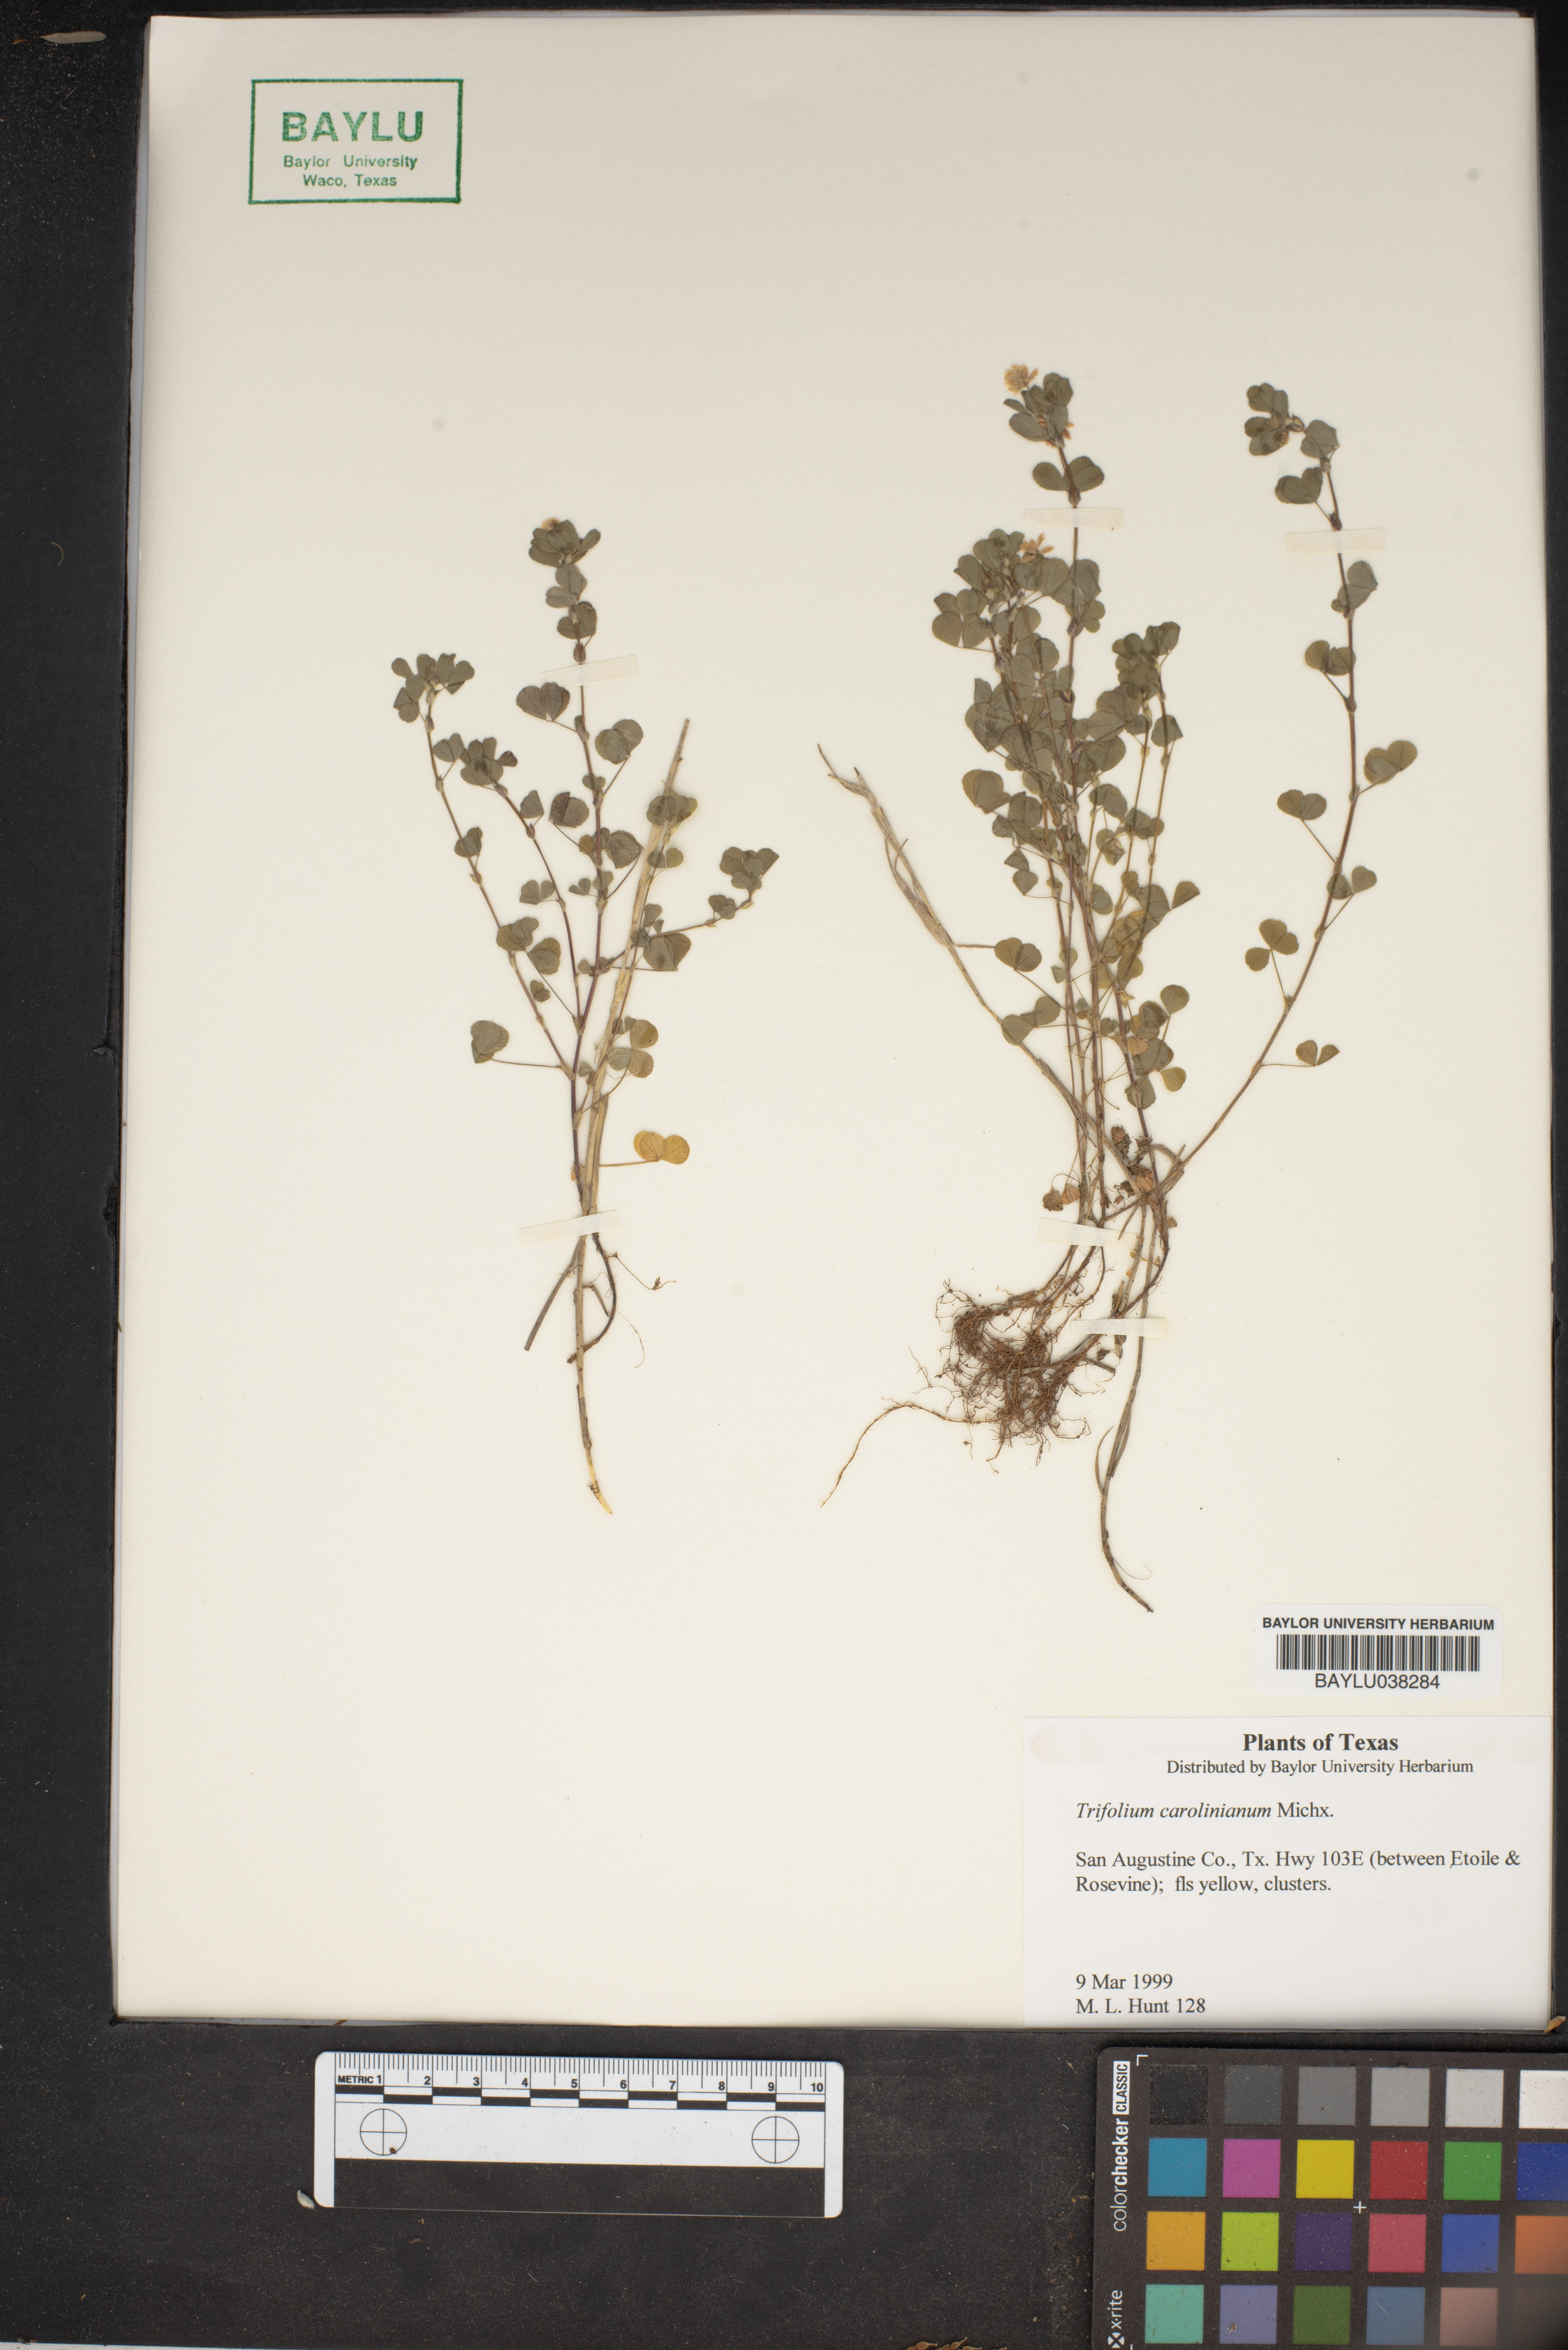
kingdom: Plantae
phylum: Tracheophyta
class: Magnoliopsida
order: Fabales
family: Fabaceae
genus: Trifolium
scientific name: Trifolium carolinianum
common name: Wild white clover
